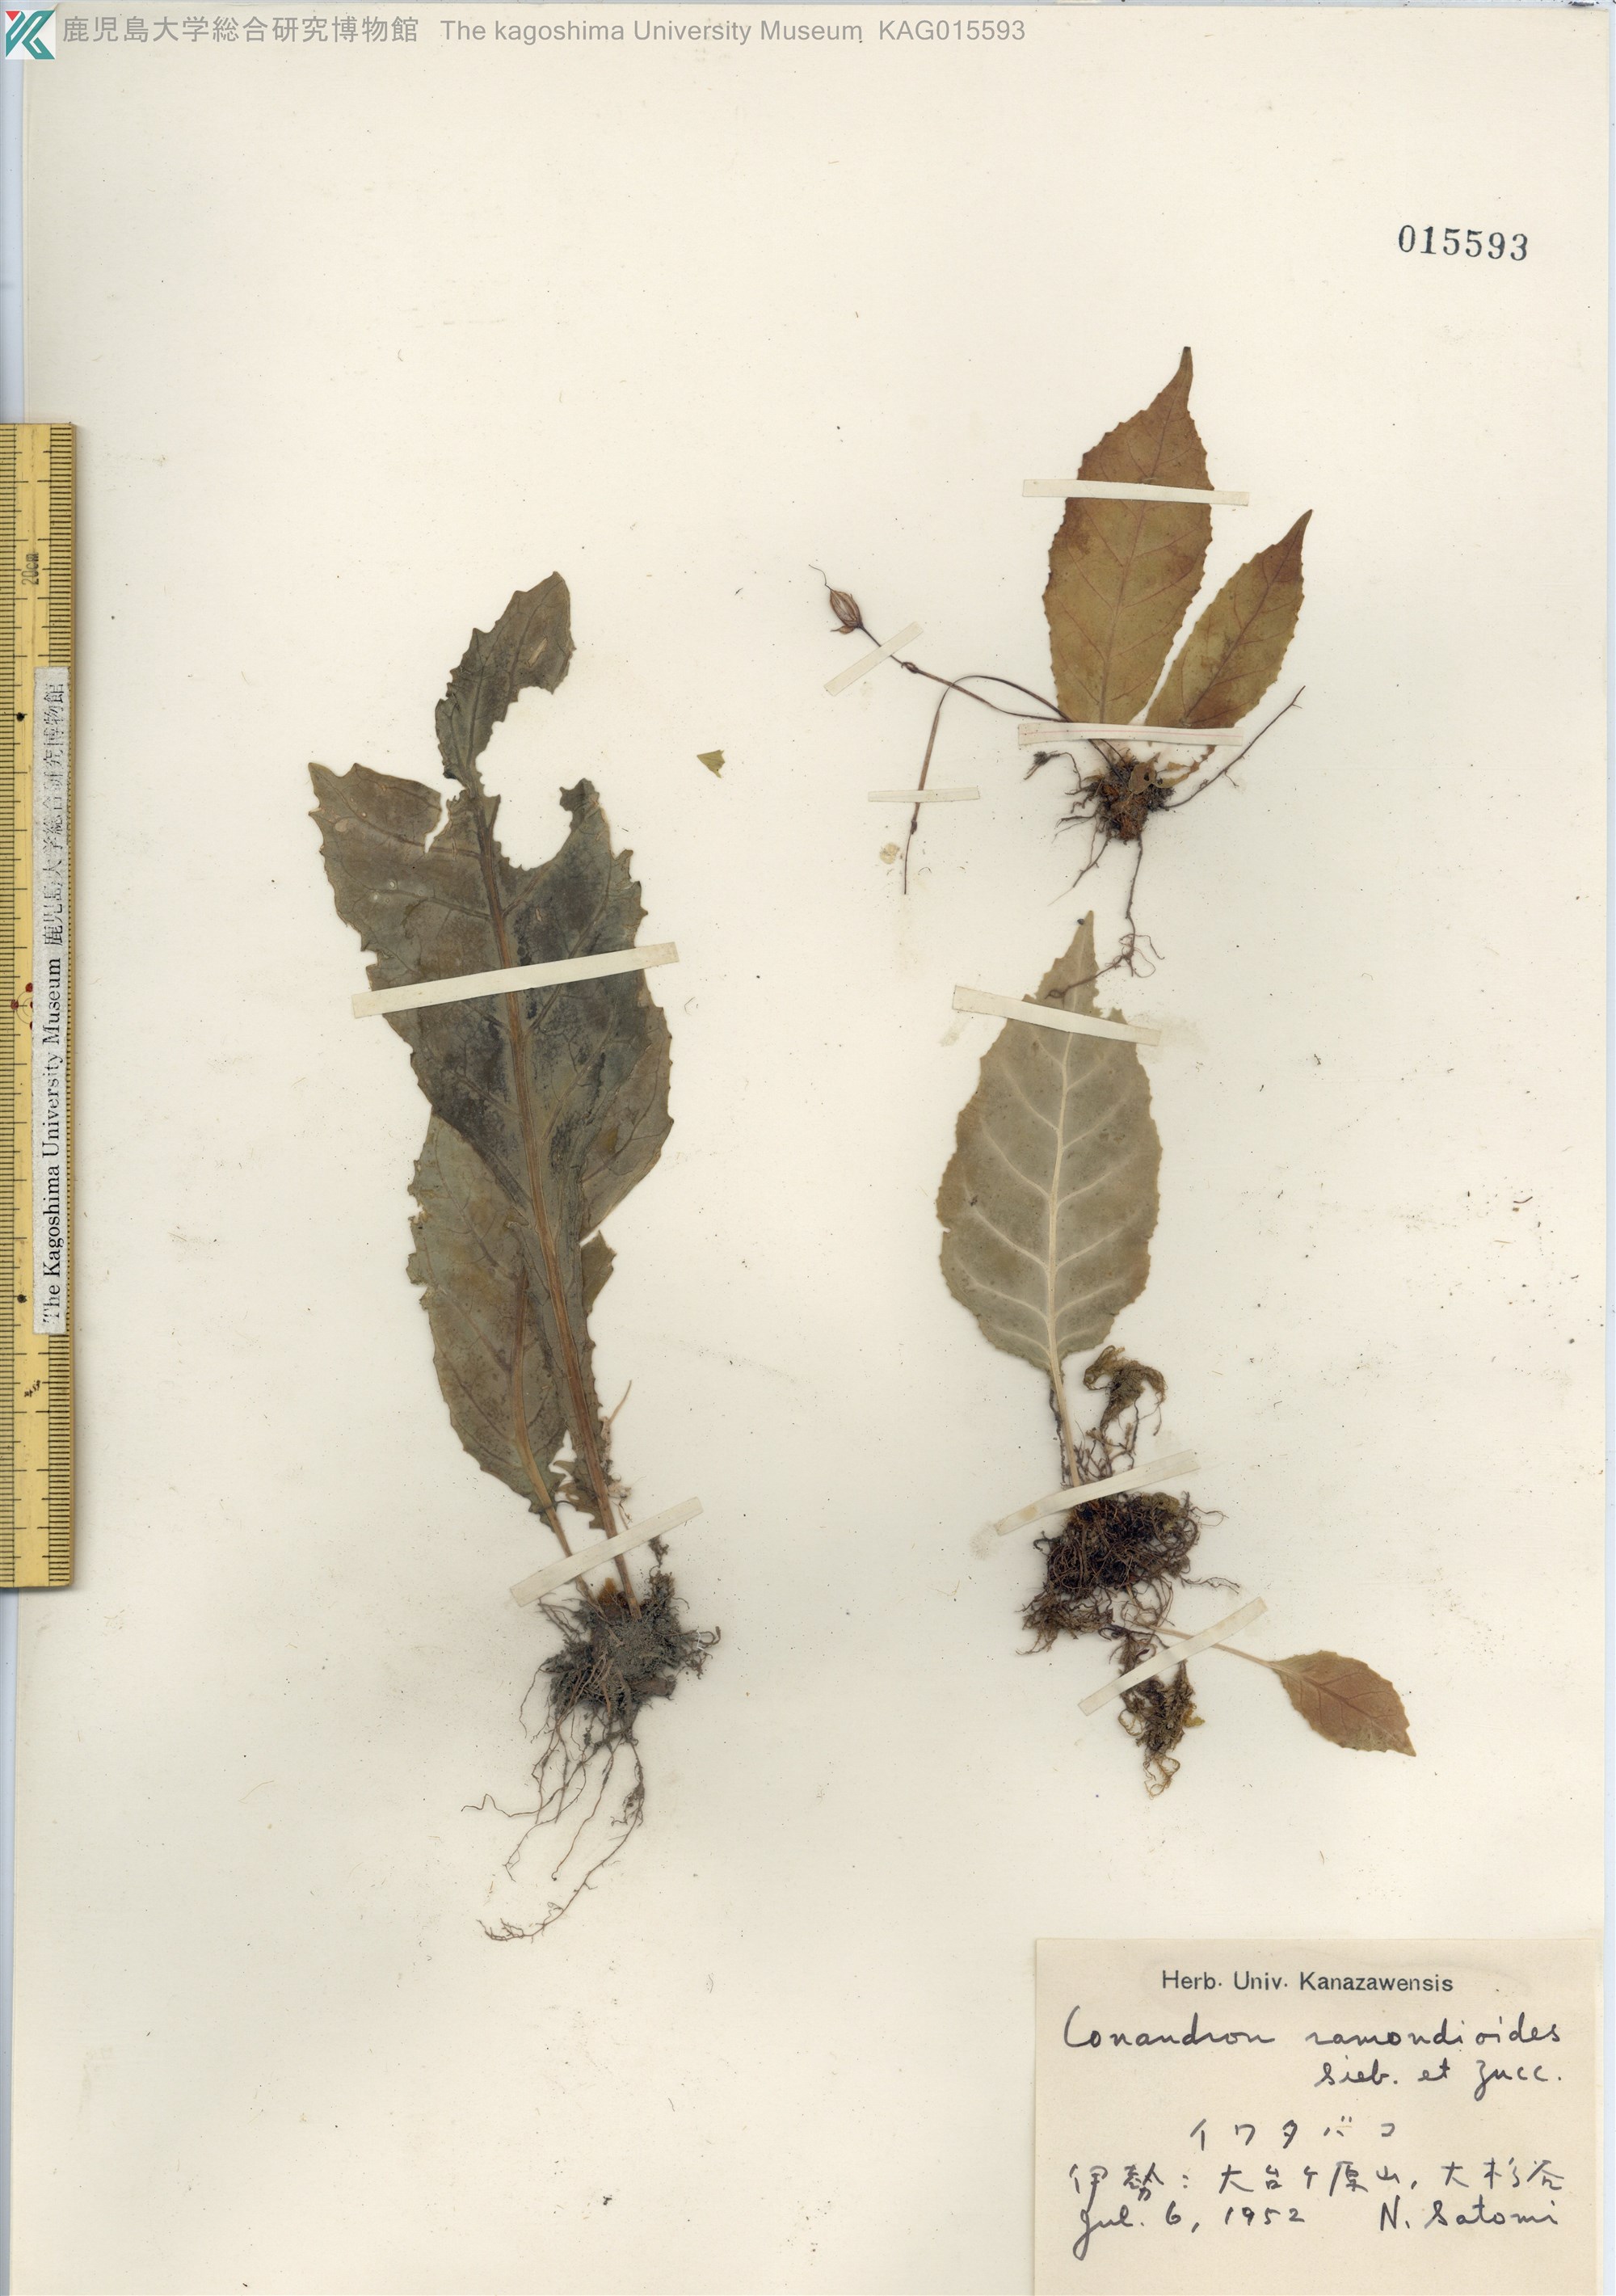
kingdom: Plantae
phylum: Tracheophyta
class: Magnoliopsida
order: Lamiales
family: Gesneriaceae
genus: Conandron
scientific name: Conandron ramondioides
